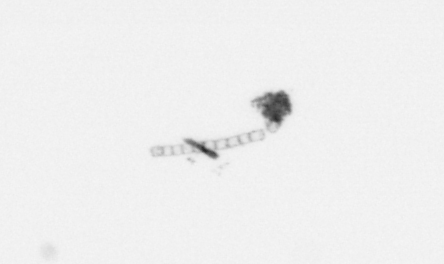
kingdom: Chromista
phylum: Ochrophyta
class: Bacillariophyceae
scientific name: Bacillariophyceae
